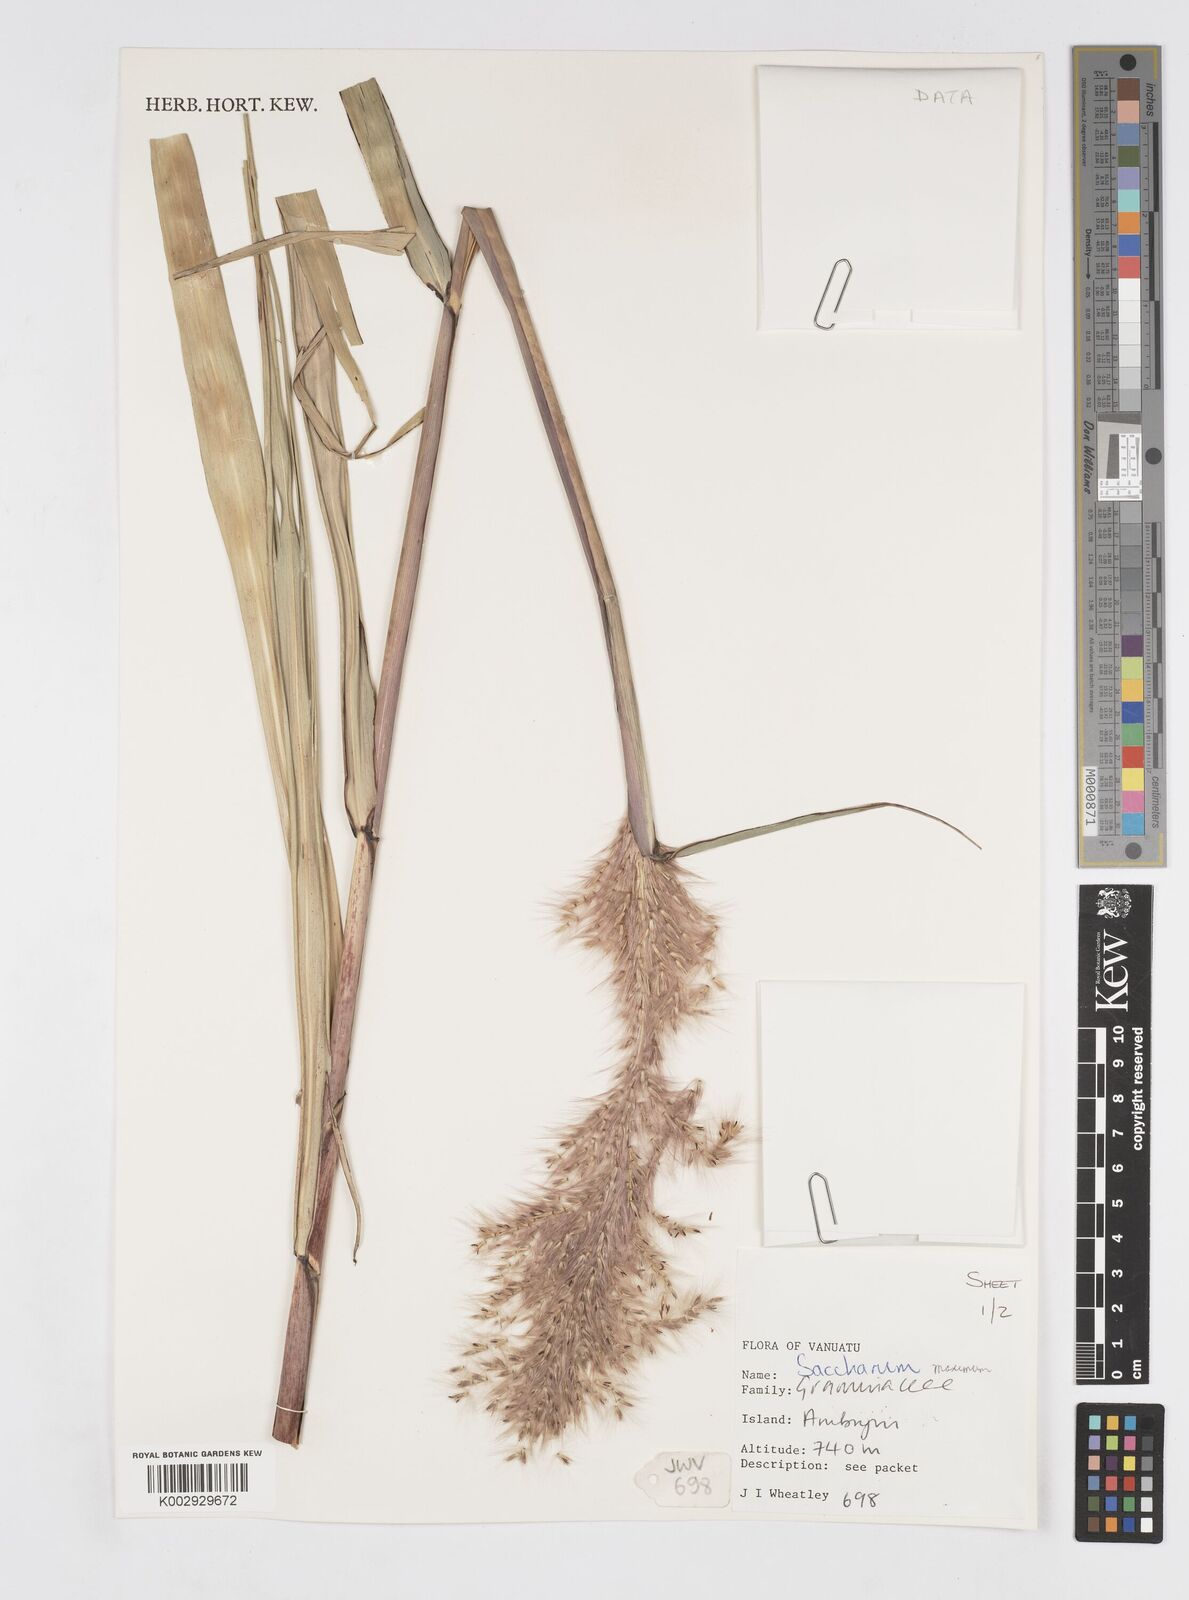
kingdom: Plantae
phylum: Tracheophyta
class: Liliopsida
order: Poales
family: Poaceae
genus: Saccharum
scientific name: Saccharum maximum
